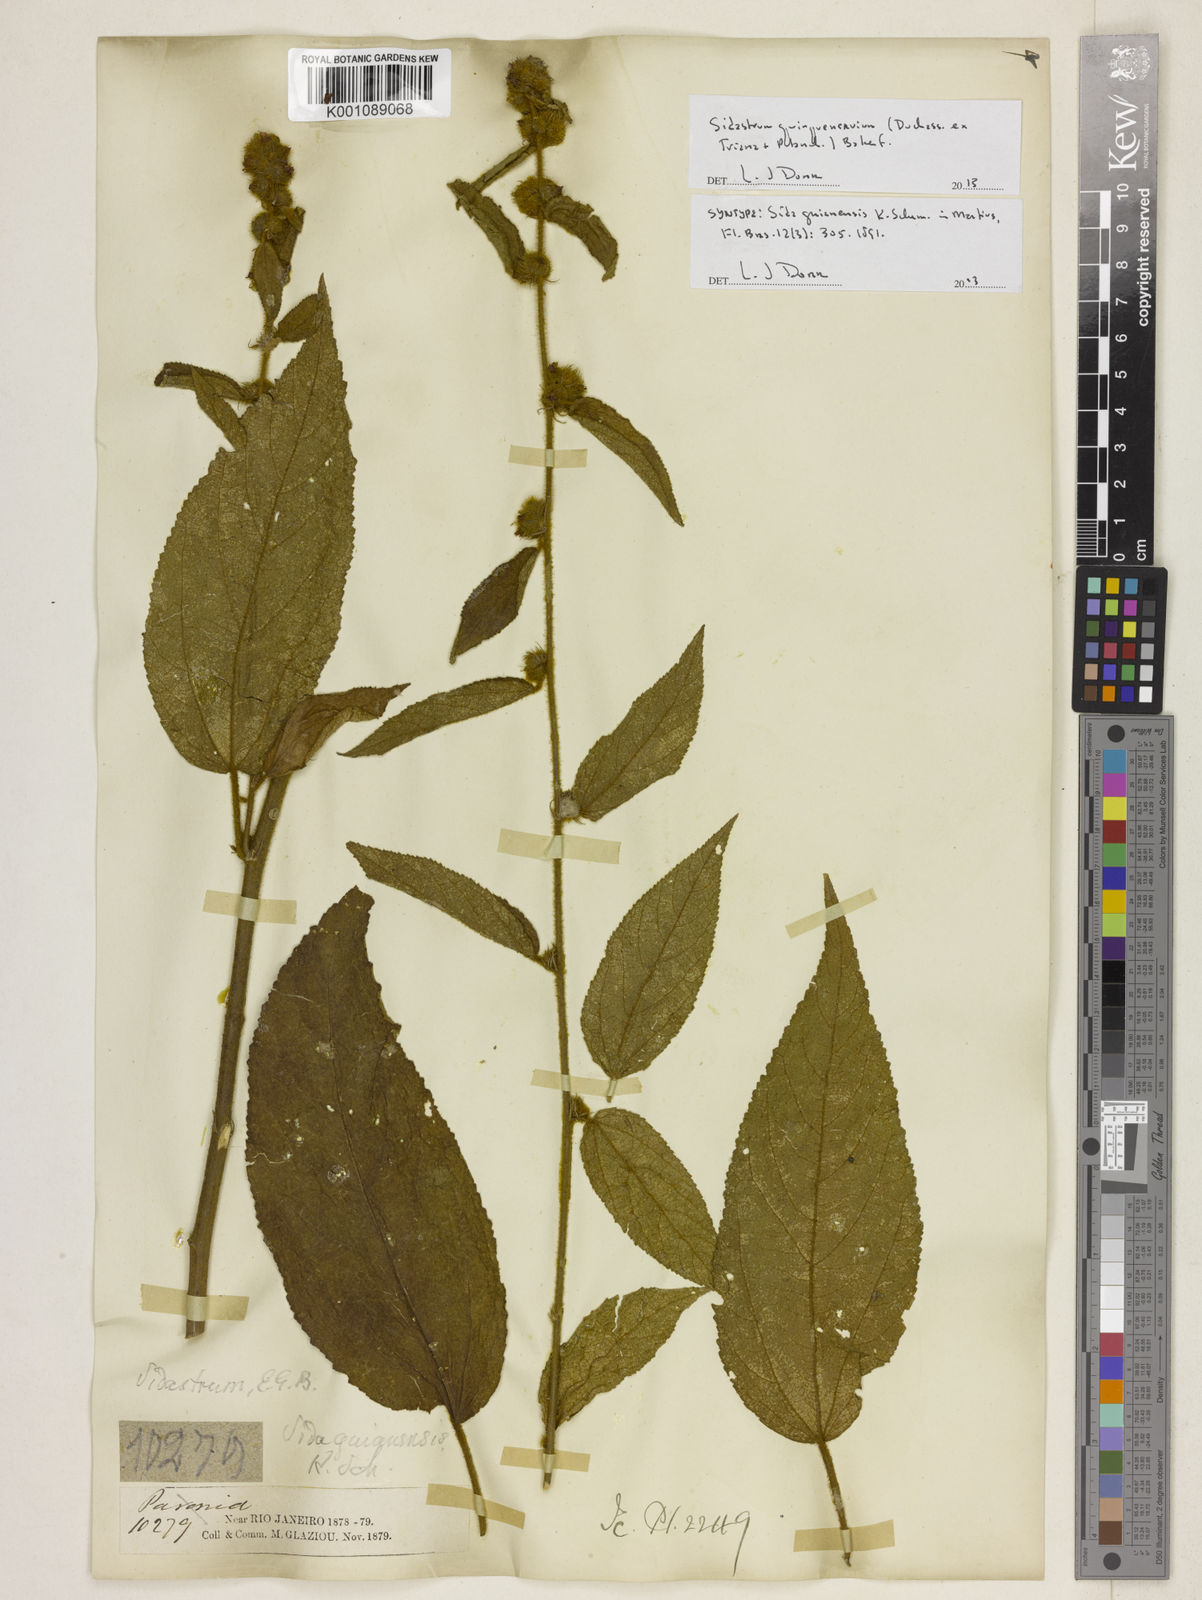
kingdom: Plantae
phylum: Tracheophyta
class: Magnoliopsida
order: Malvales
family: Malvaceae
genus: Sidastrum
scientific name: Sidastrum quinquenervium
